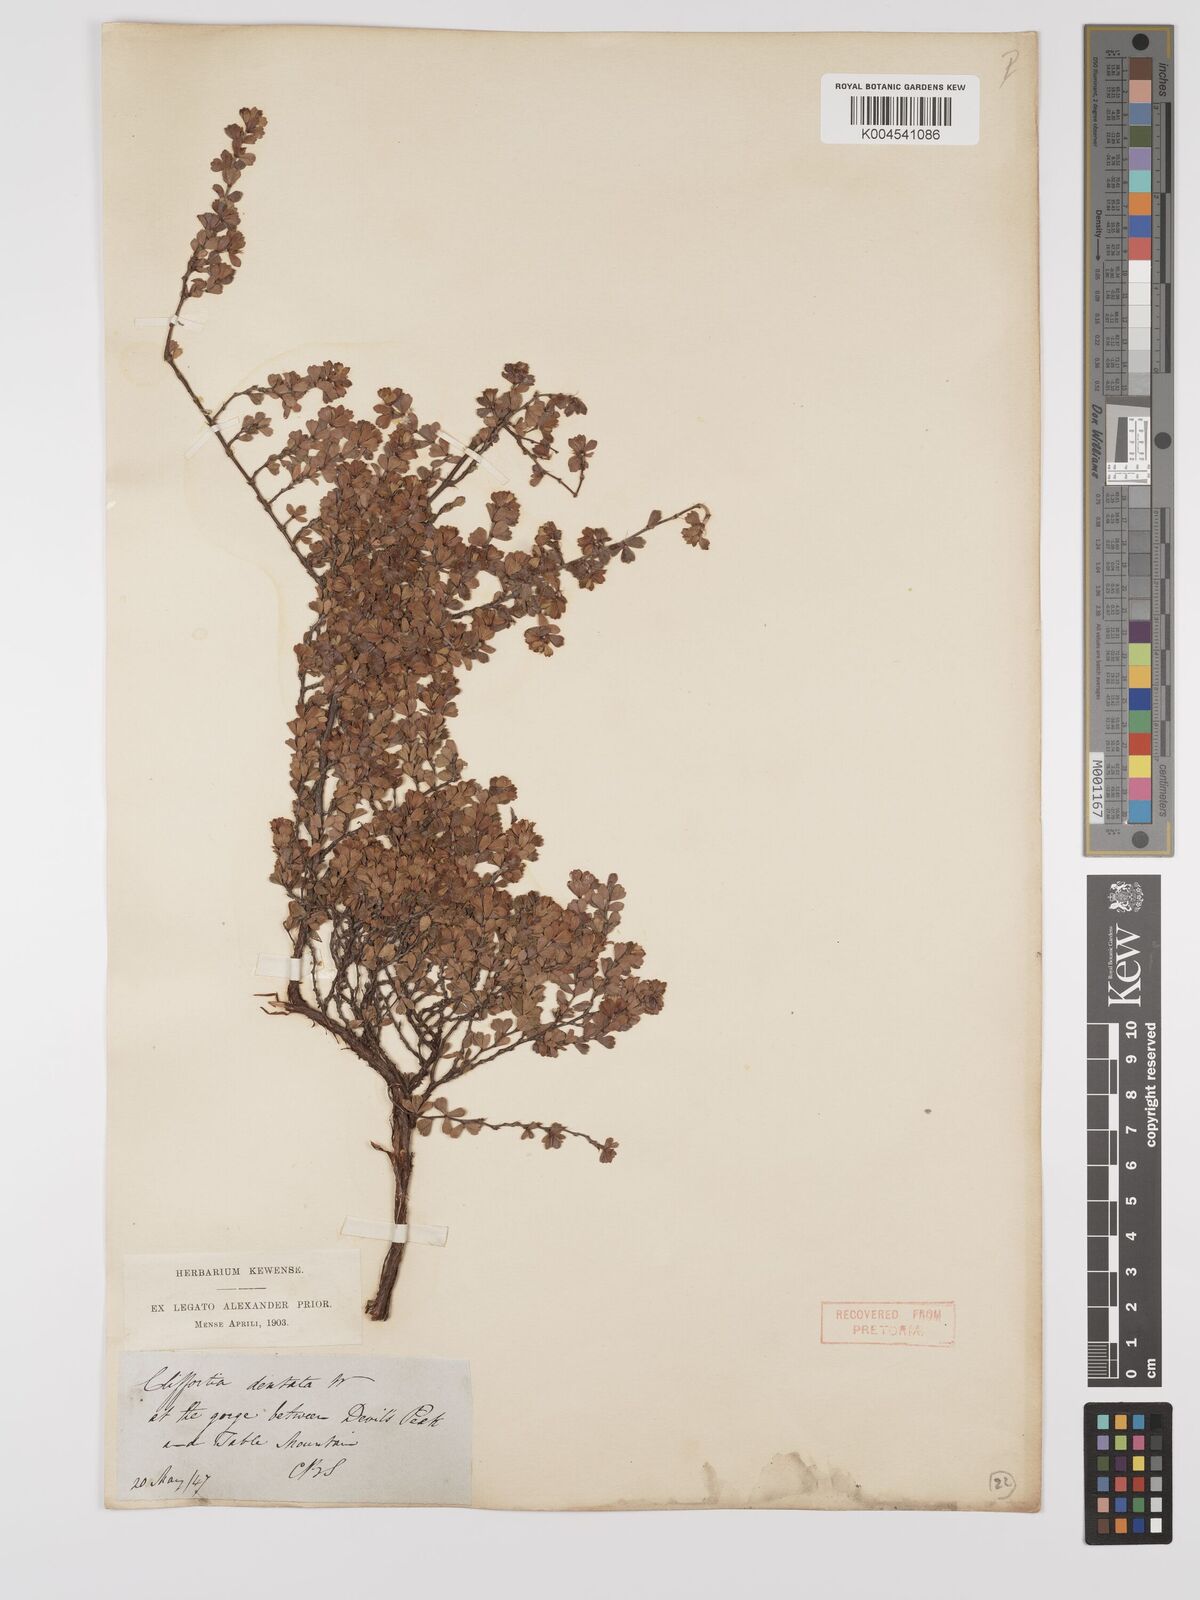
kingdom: Plantae
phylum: Tracheophyta
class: Magnoliopsida
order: Rosales
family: Rosaceae
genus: Cliffortia
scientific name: Cliffortia
